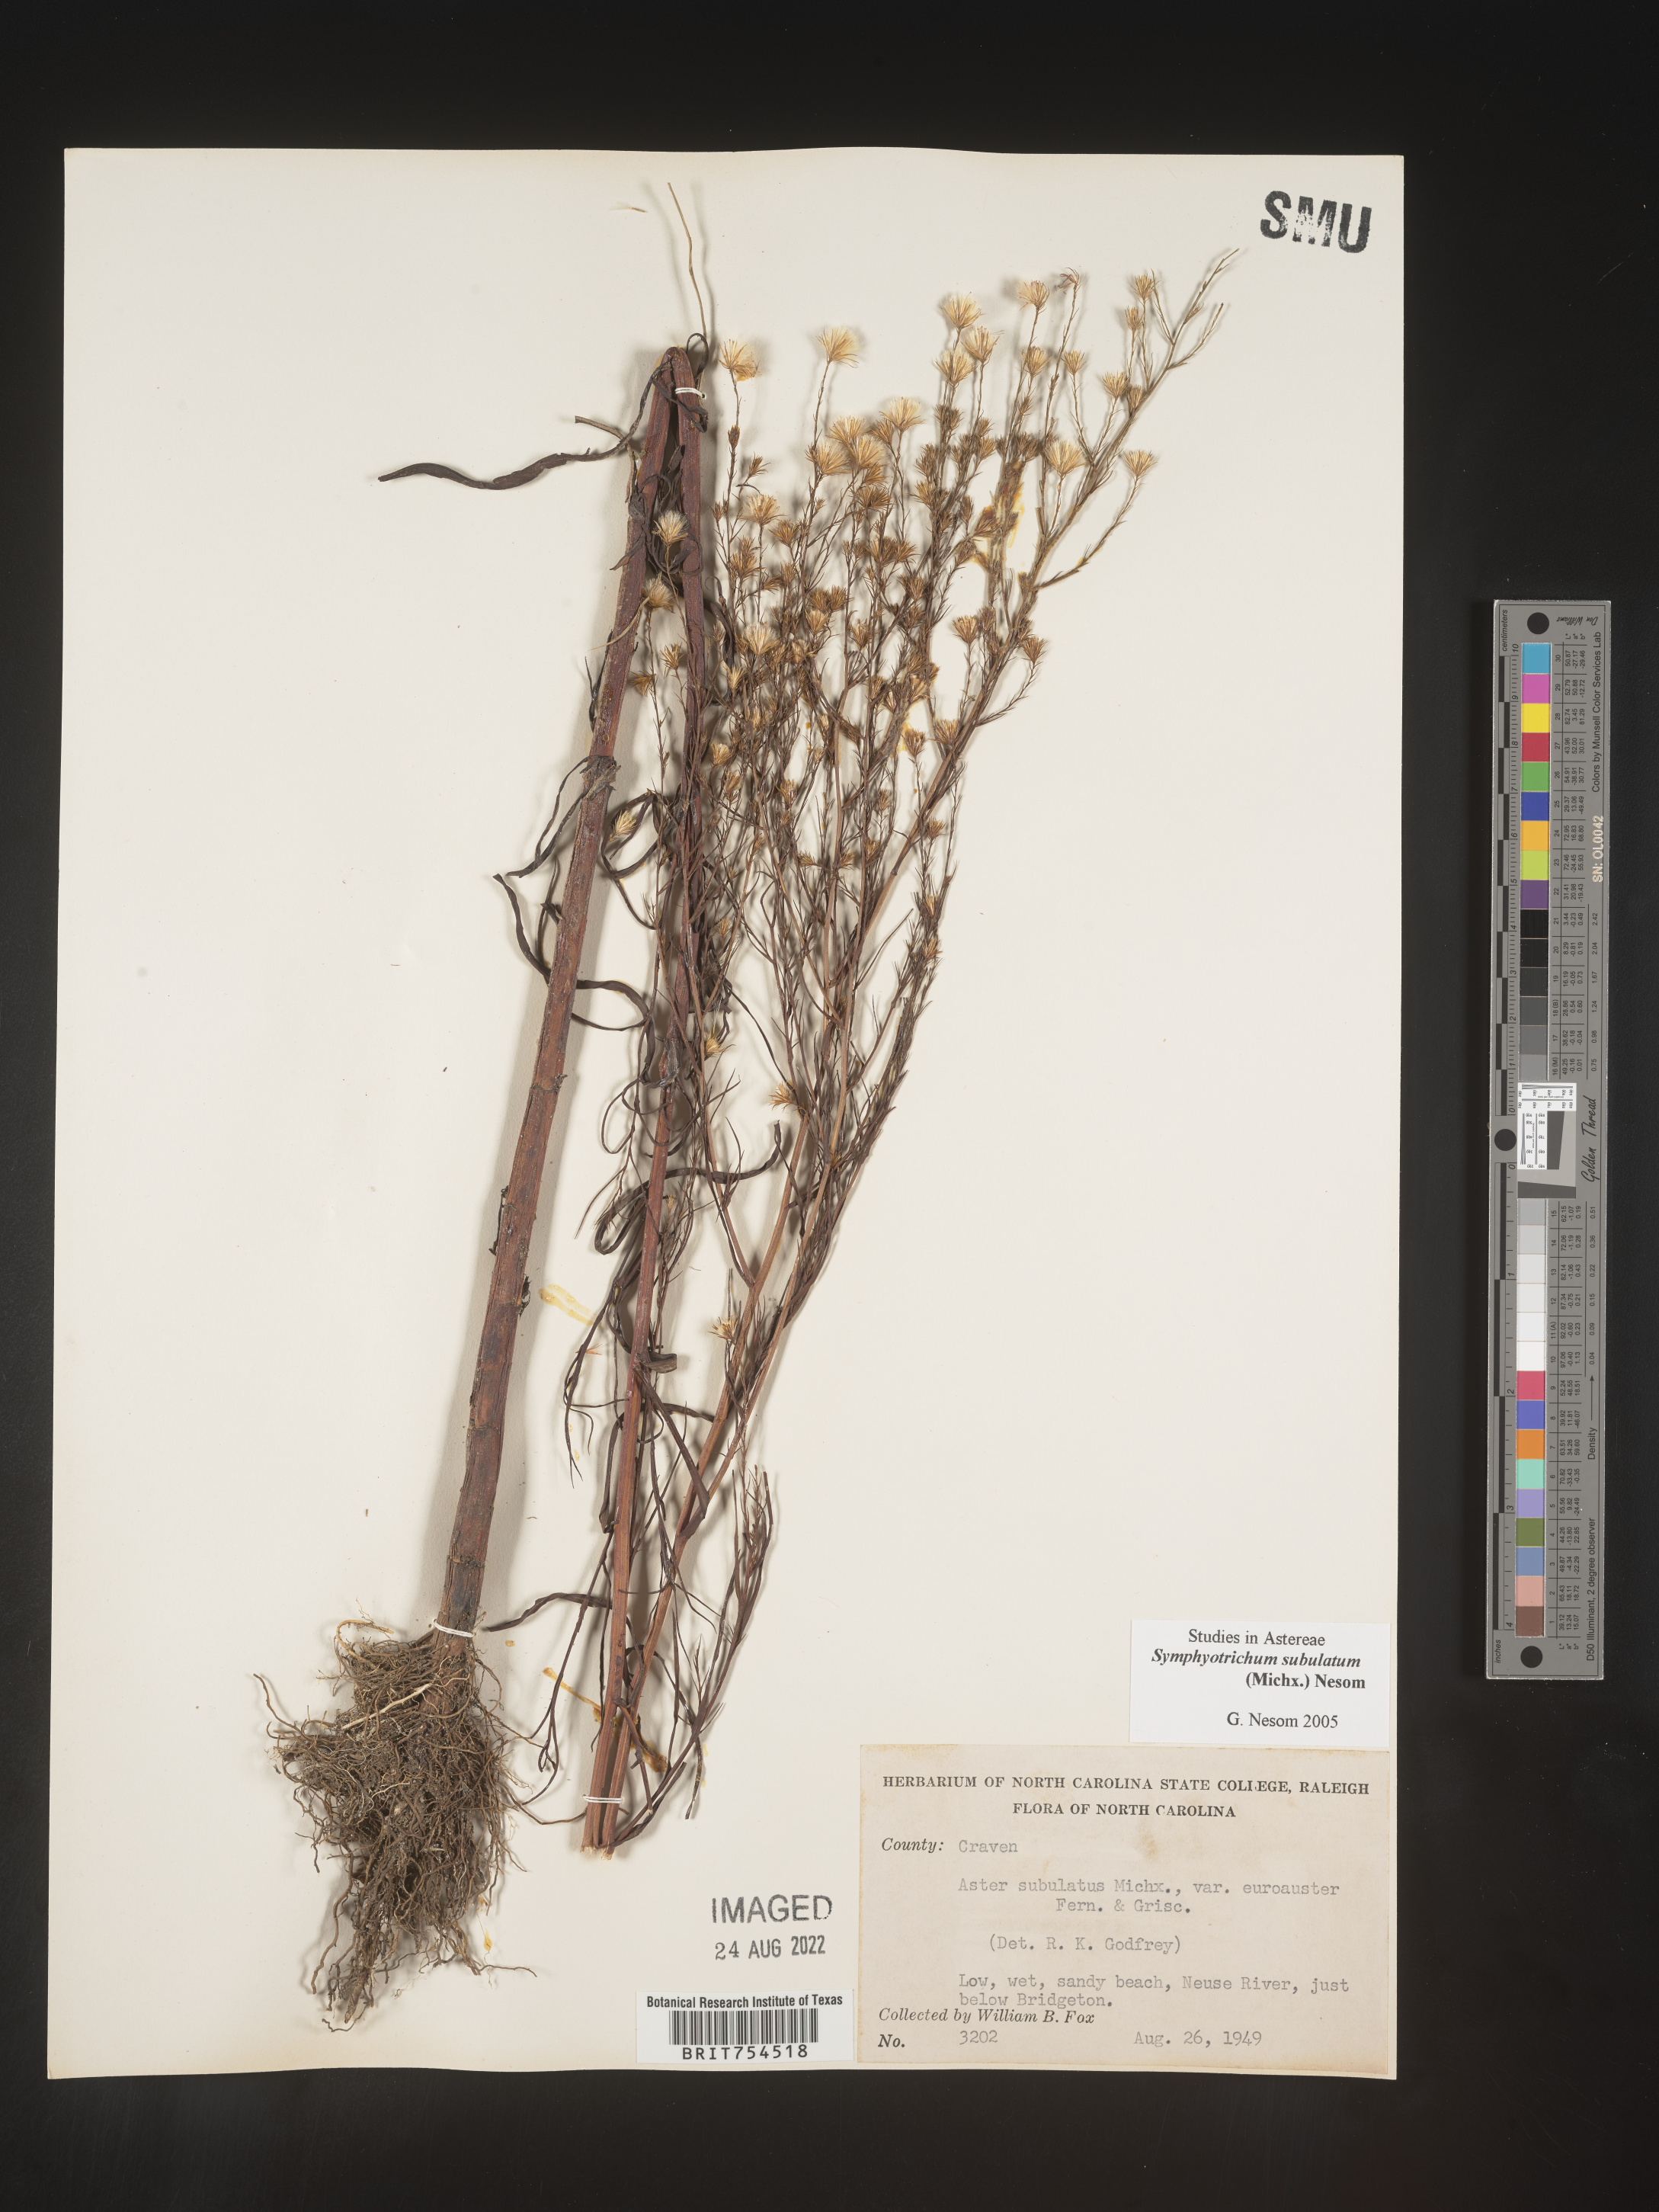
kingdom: Plantae
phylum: Tracheophyta
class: Magnoliopsida
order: Asterales
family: Asteraceae
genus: Symphyotrichum
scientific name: Symphyotrichum subulatum
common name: Annual saltmarsh aster
